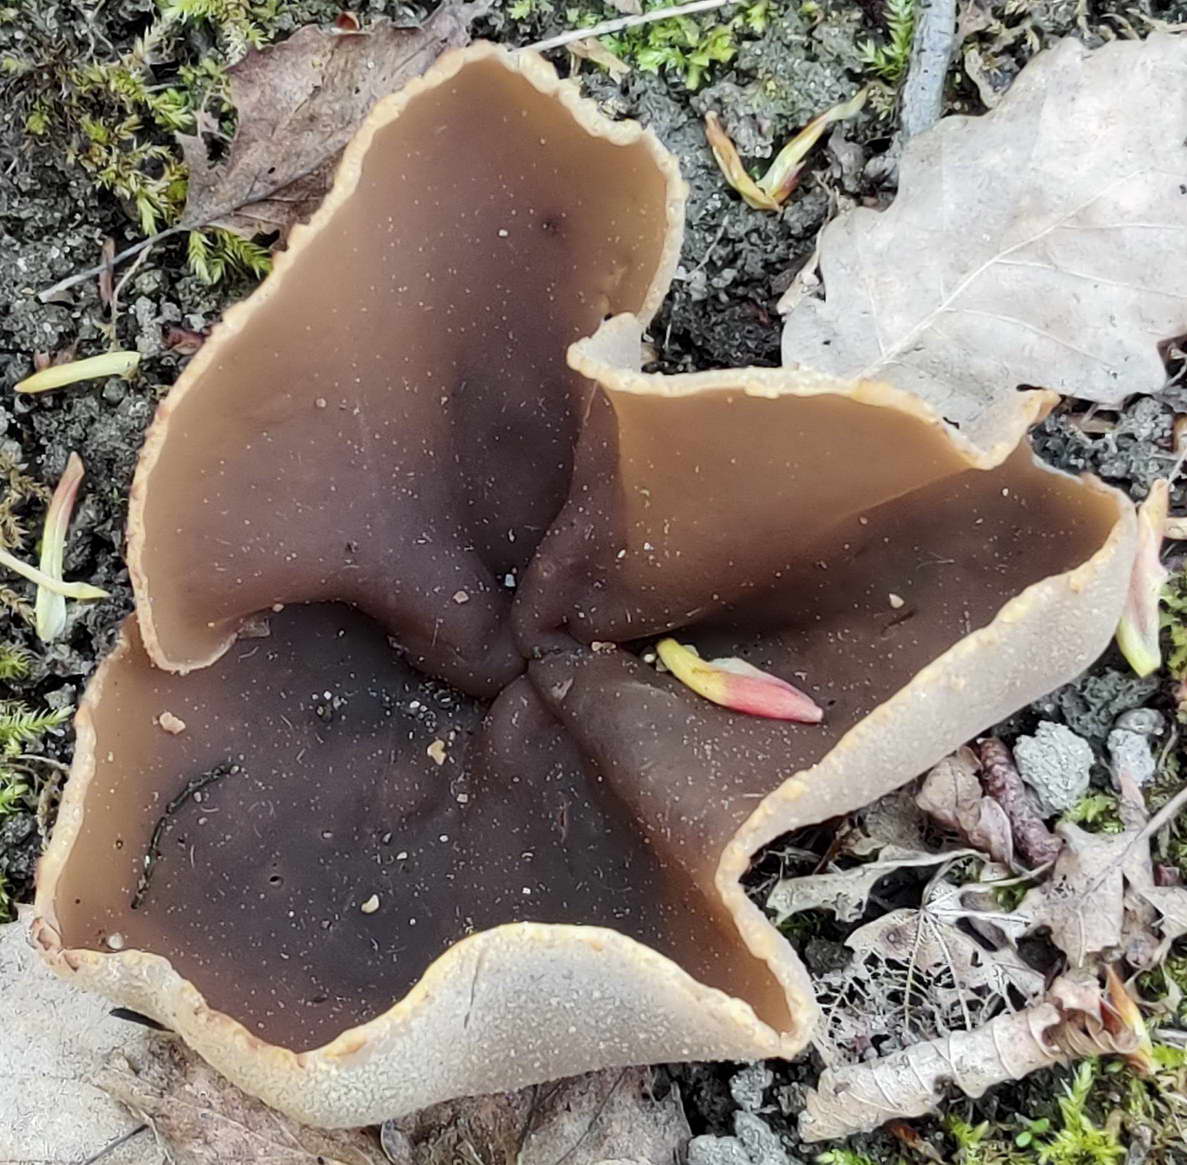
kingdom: Fungi
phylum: Ascomycota
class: Pezizomycetes
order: Pezizales
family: Pezizaceae
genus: Peziza
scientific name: Peziza varia
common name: Ved-bægersvamp
